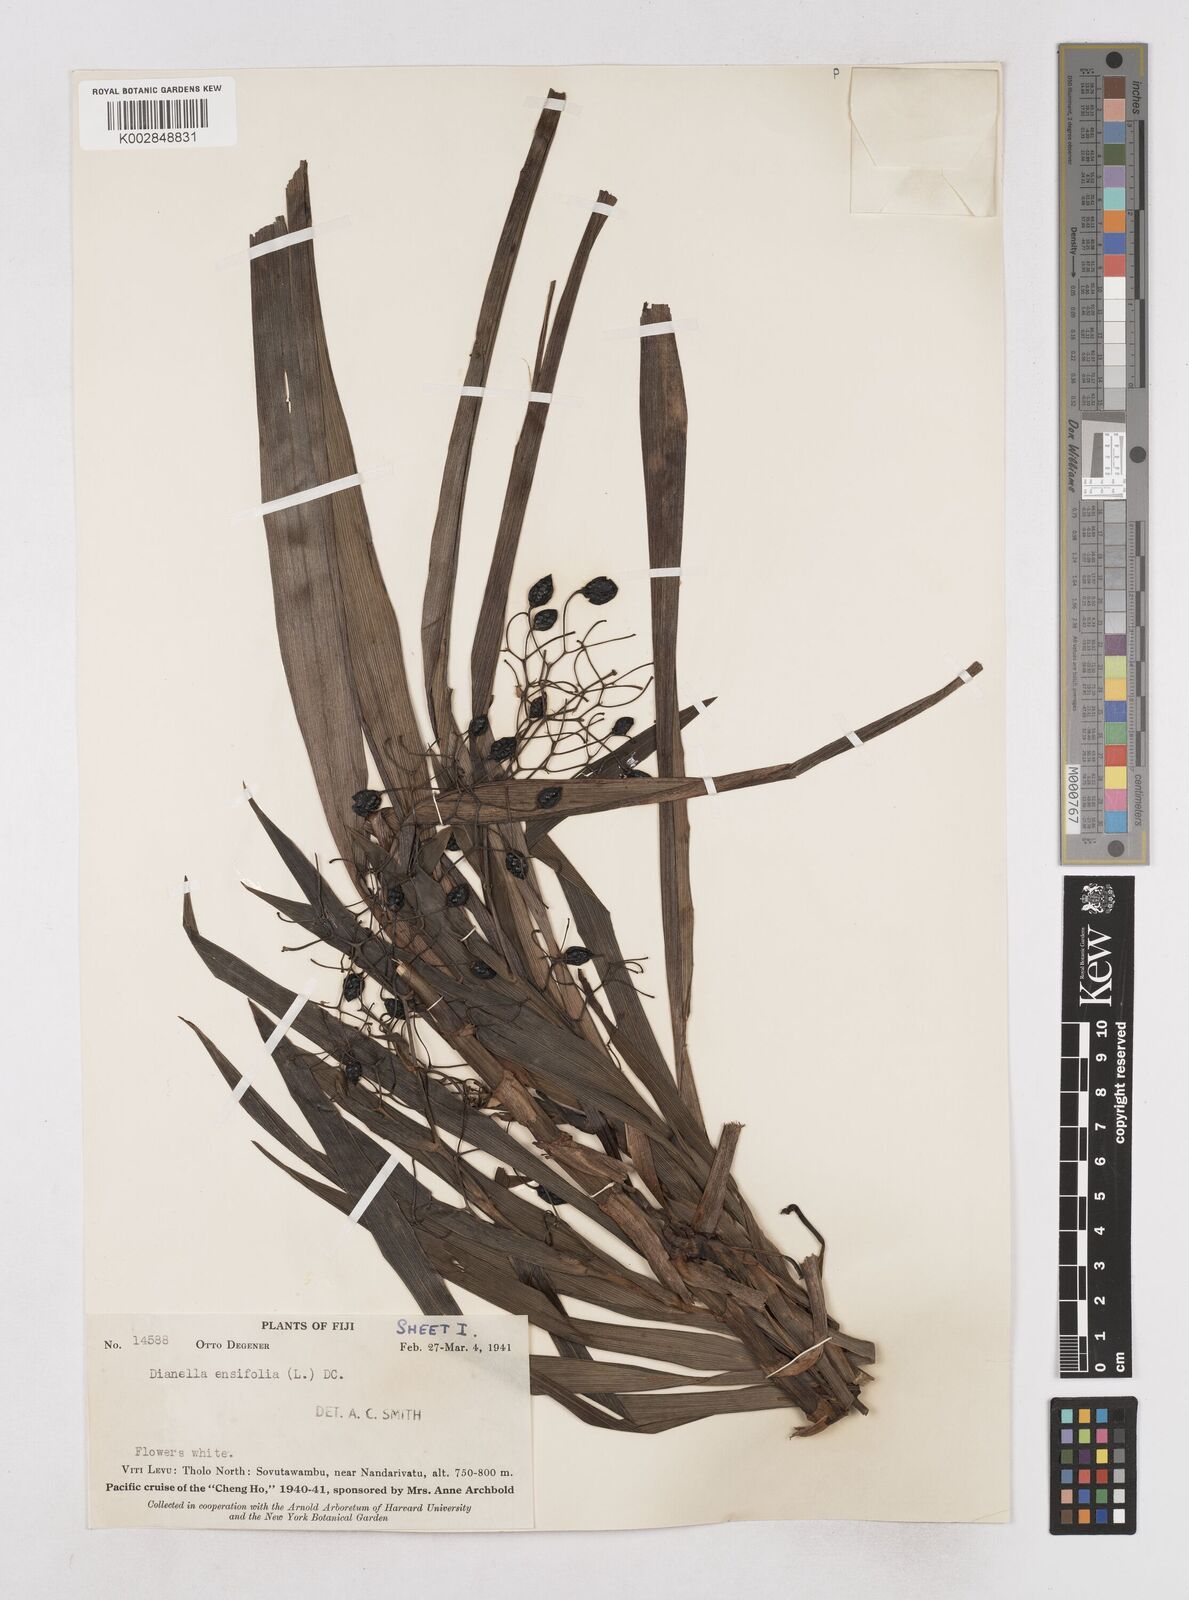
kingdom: Plantae
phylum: Tracheophyta
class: Liliopsida
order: Asparagales
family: Asphodelaceae
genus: Dianella
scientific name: Dianella ensifolia
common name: New zealand lilyplant
